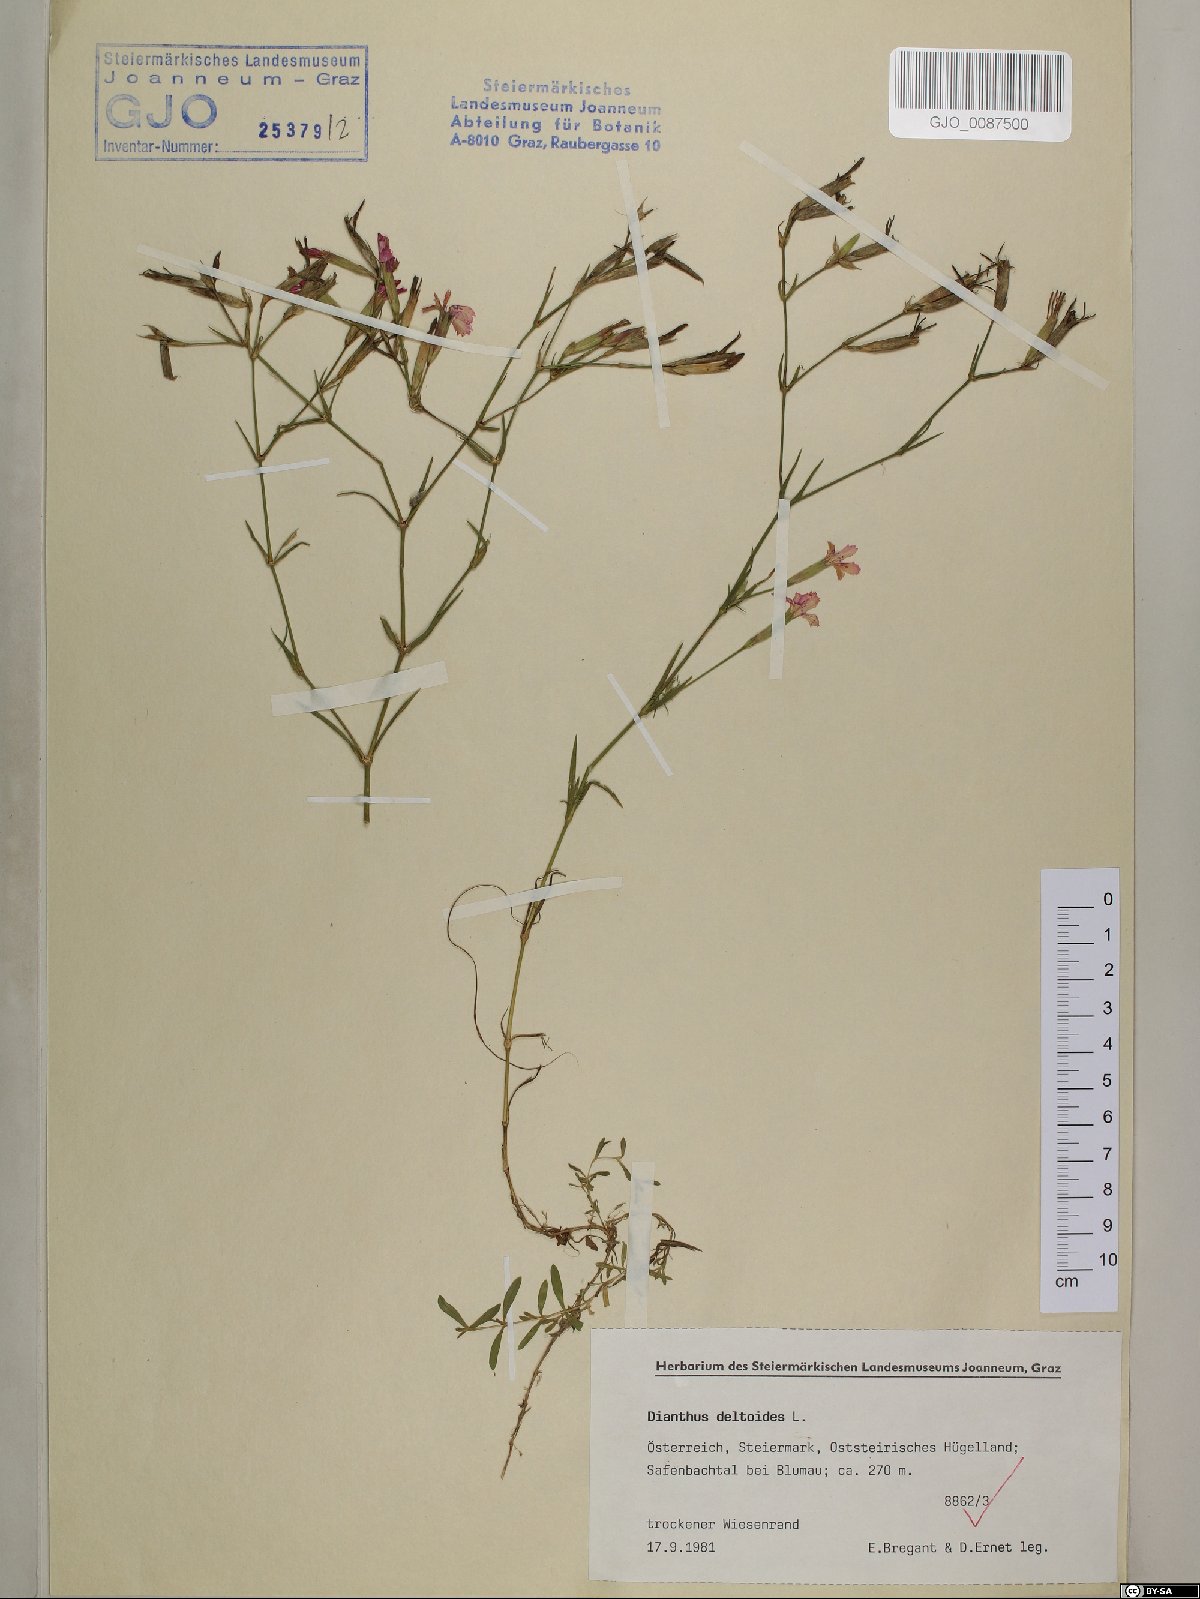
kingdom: Plantae
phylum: Tracheophyta
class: Magnoliopsida
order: Caryophyllales
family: Caryophyllaceae
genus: Dianthus
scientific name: Dianthus deltoides
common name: Maiden pink
